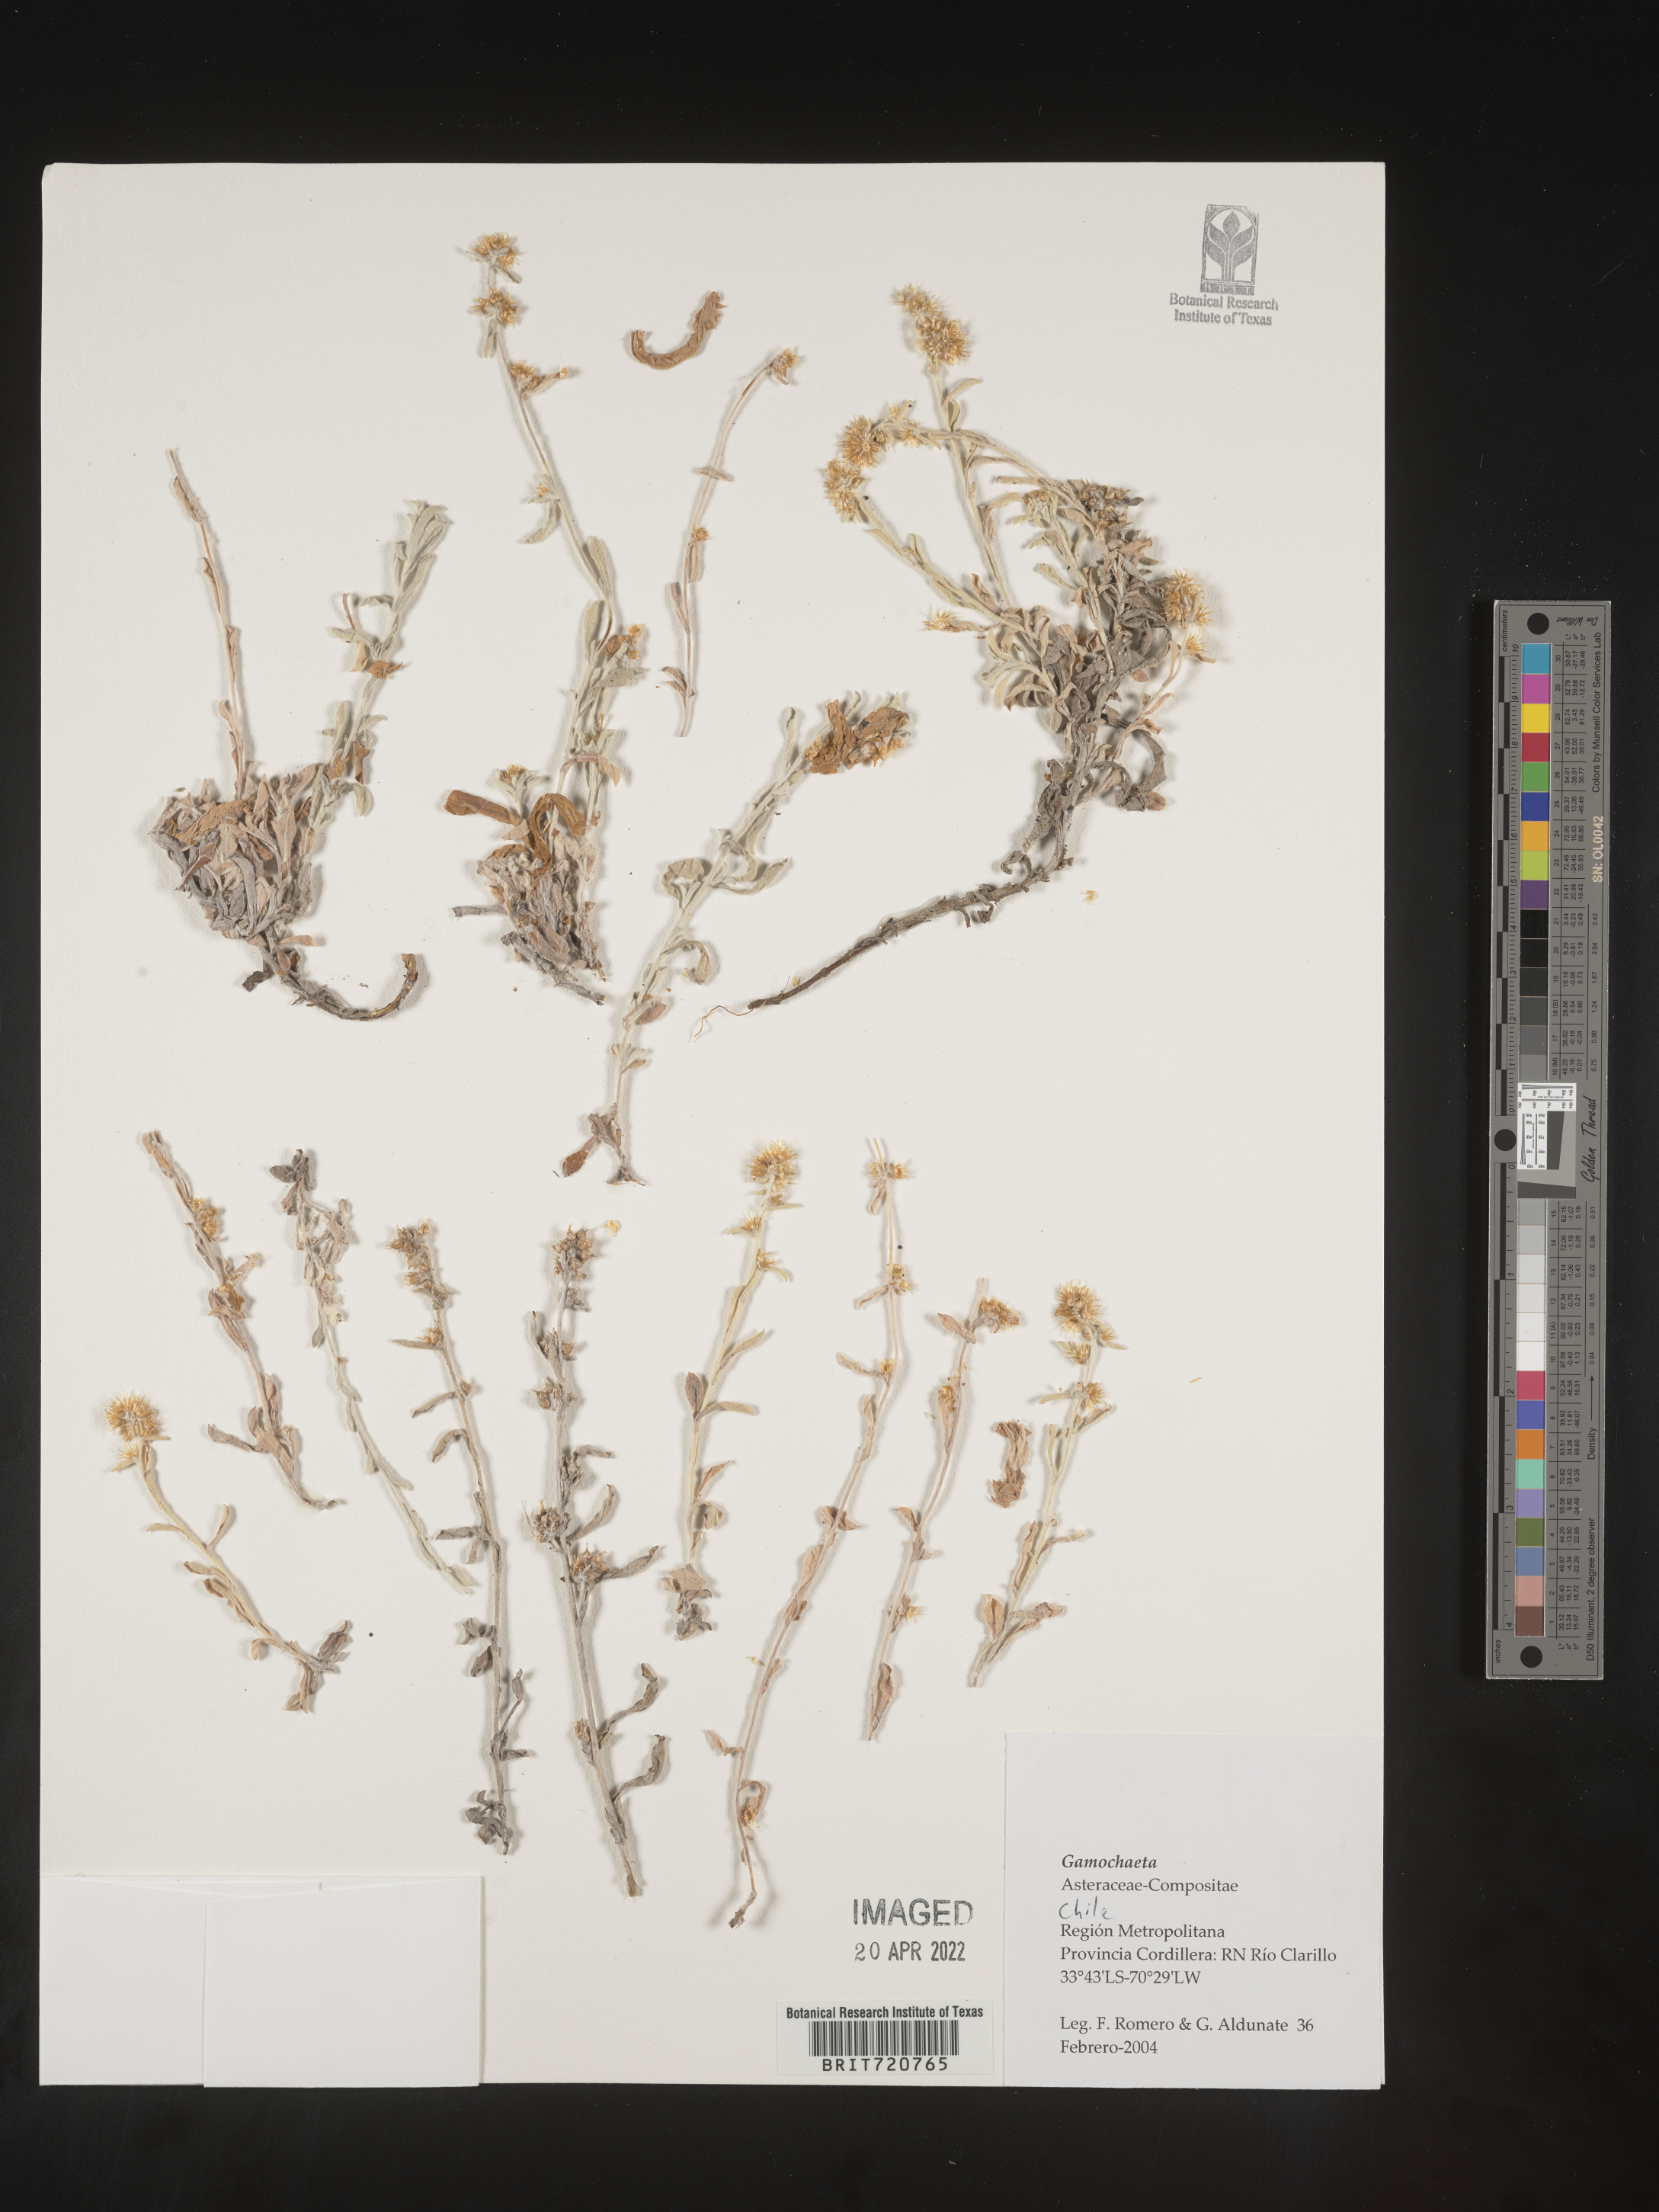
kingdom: Plantae
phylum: Tracheophyta
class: Magnoliopsida
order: Asterales
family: Asteraceae
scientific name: Asteraceae
